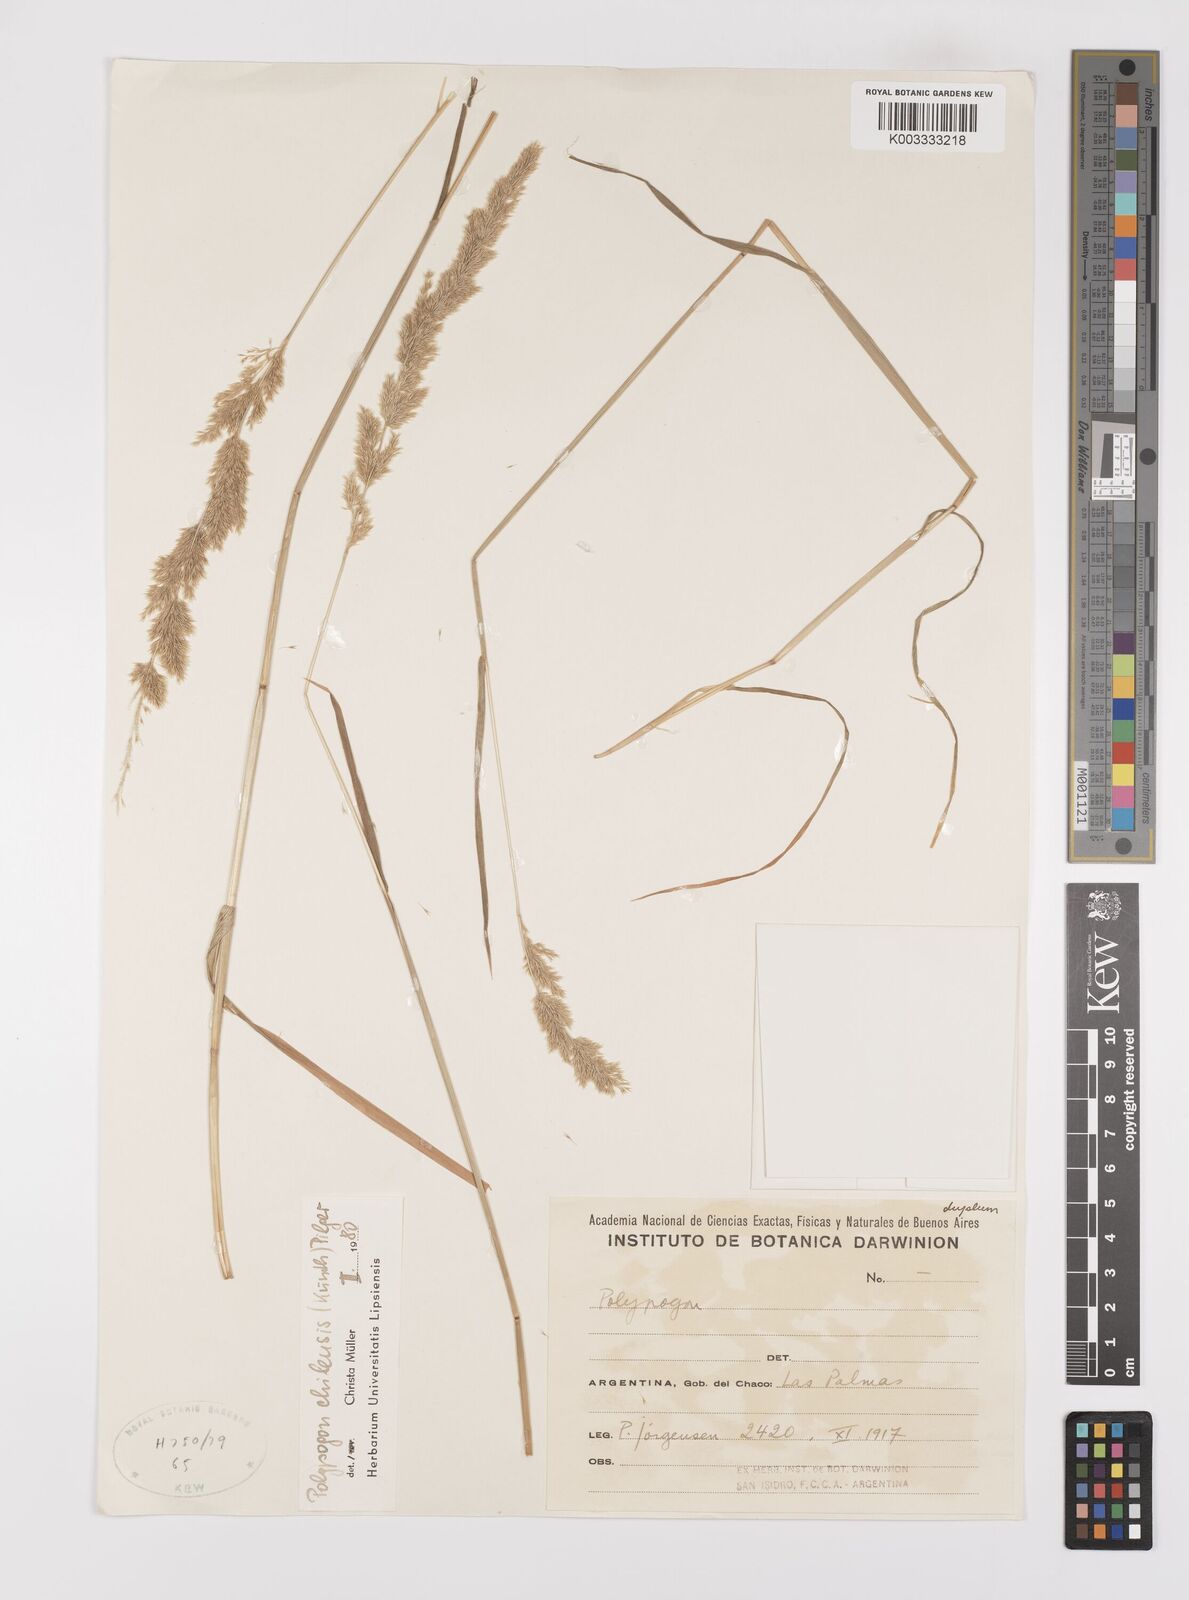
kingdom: Plantae
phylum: Tracheophyta
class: Liliopsida
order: Poales
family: Poaceae
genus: Polypogon
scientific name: Polypogon chilensis
